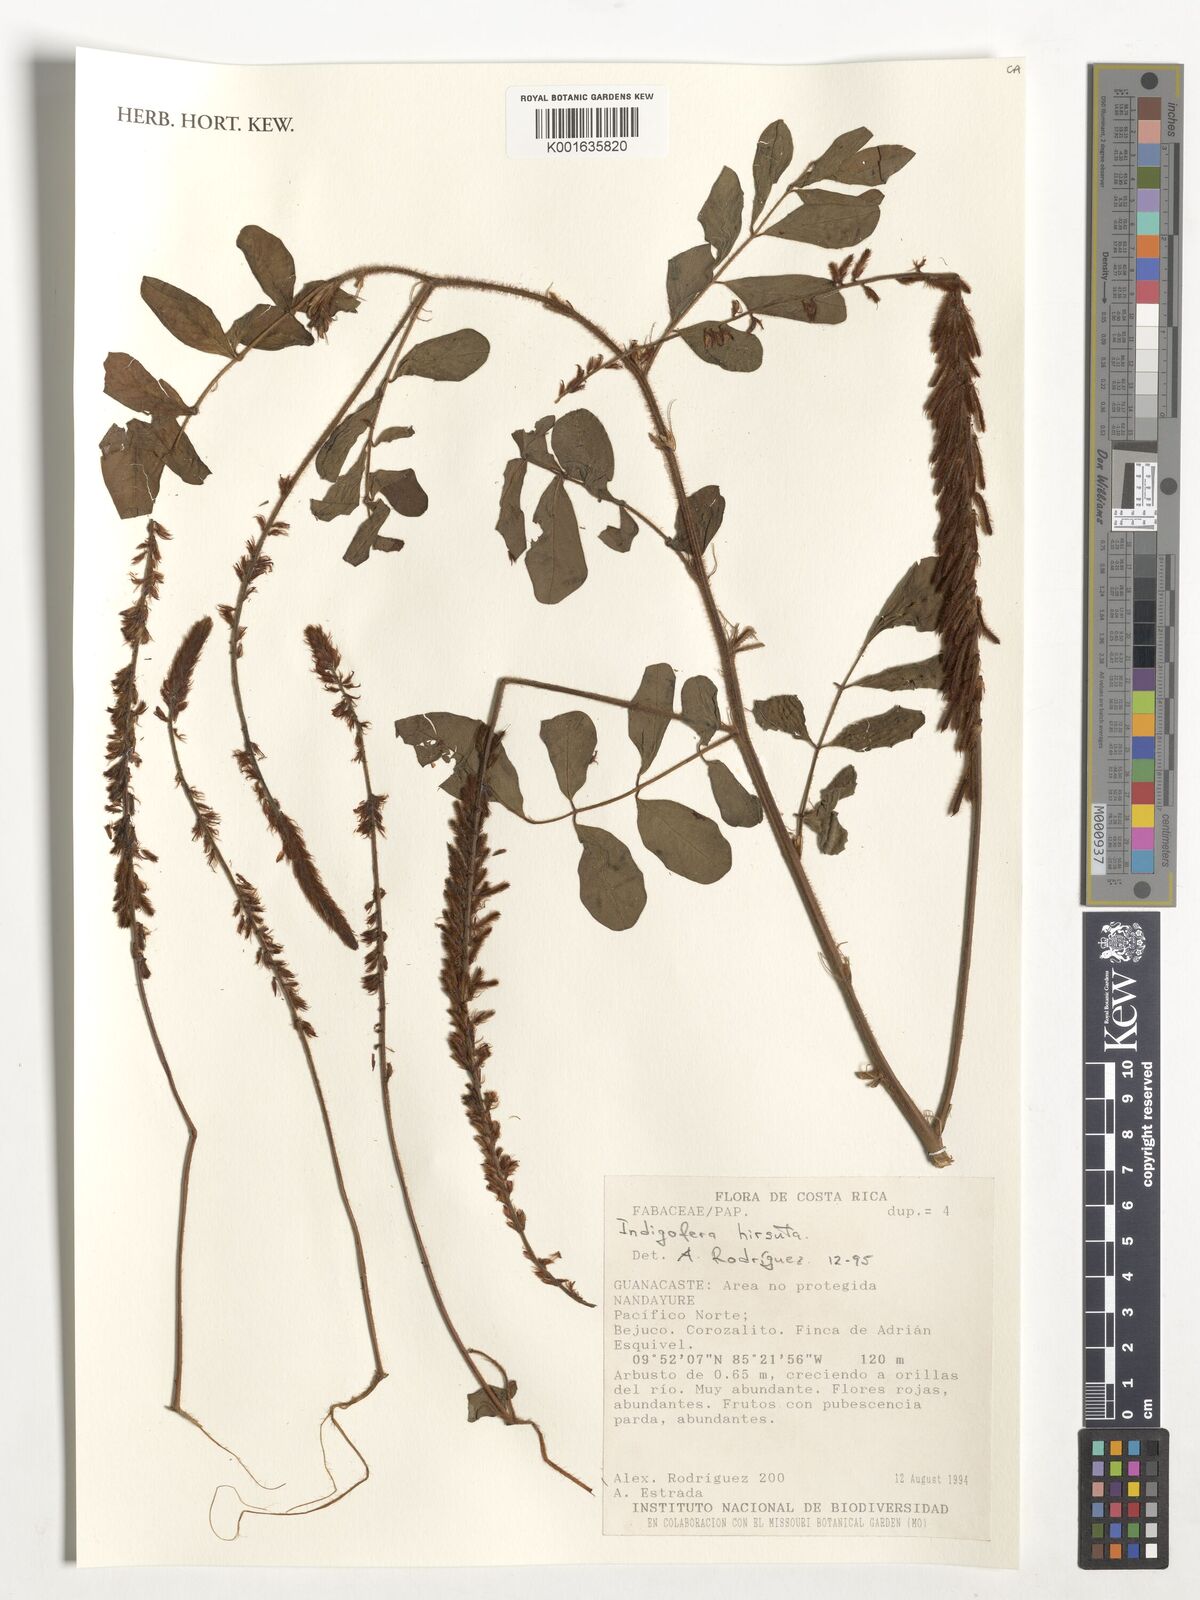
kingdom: Plantae
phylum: Tracheophyta
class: Magnoliopsida
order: Fabales
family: Fabaceae
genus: Indigofera
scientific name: Indigofera hirsuta
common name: Hairy indigo
